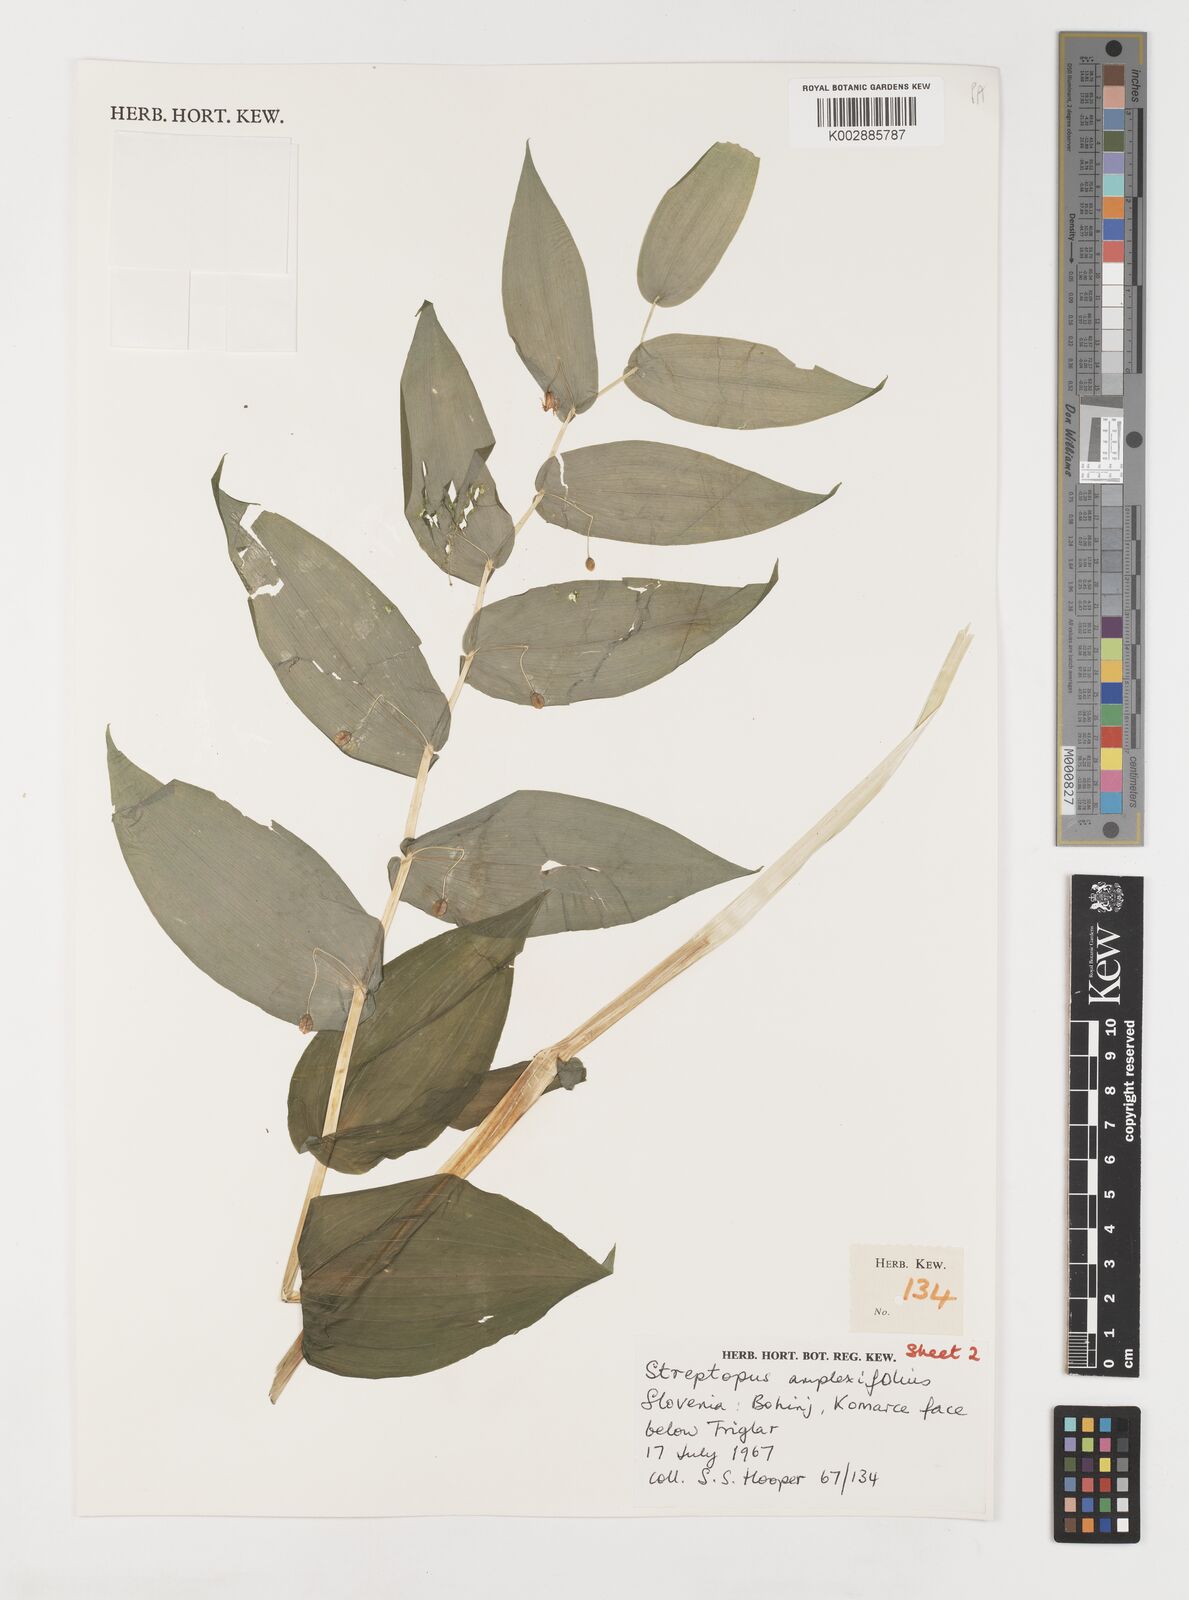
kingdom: Plantae
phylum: Tracheophyta
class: Liliopsida
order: Liliales
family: Liliaceae
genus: Streptopus
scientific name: Streptopus amplexifolius
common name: Clasp twisted stalk
